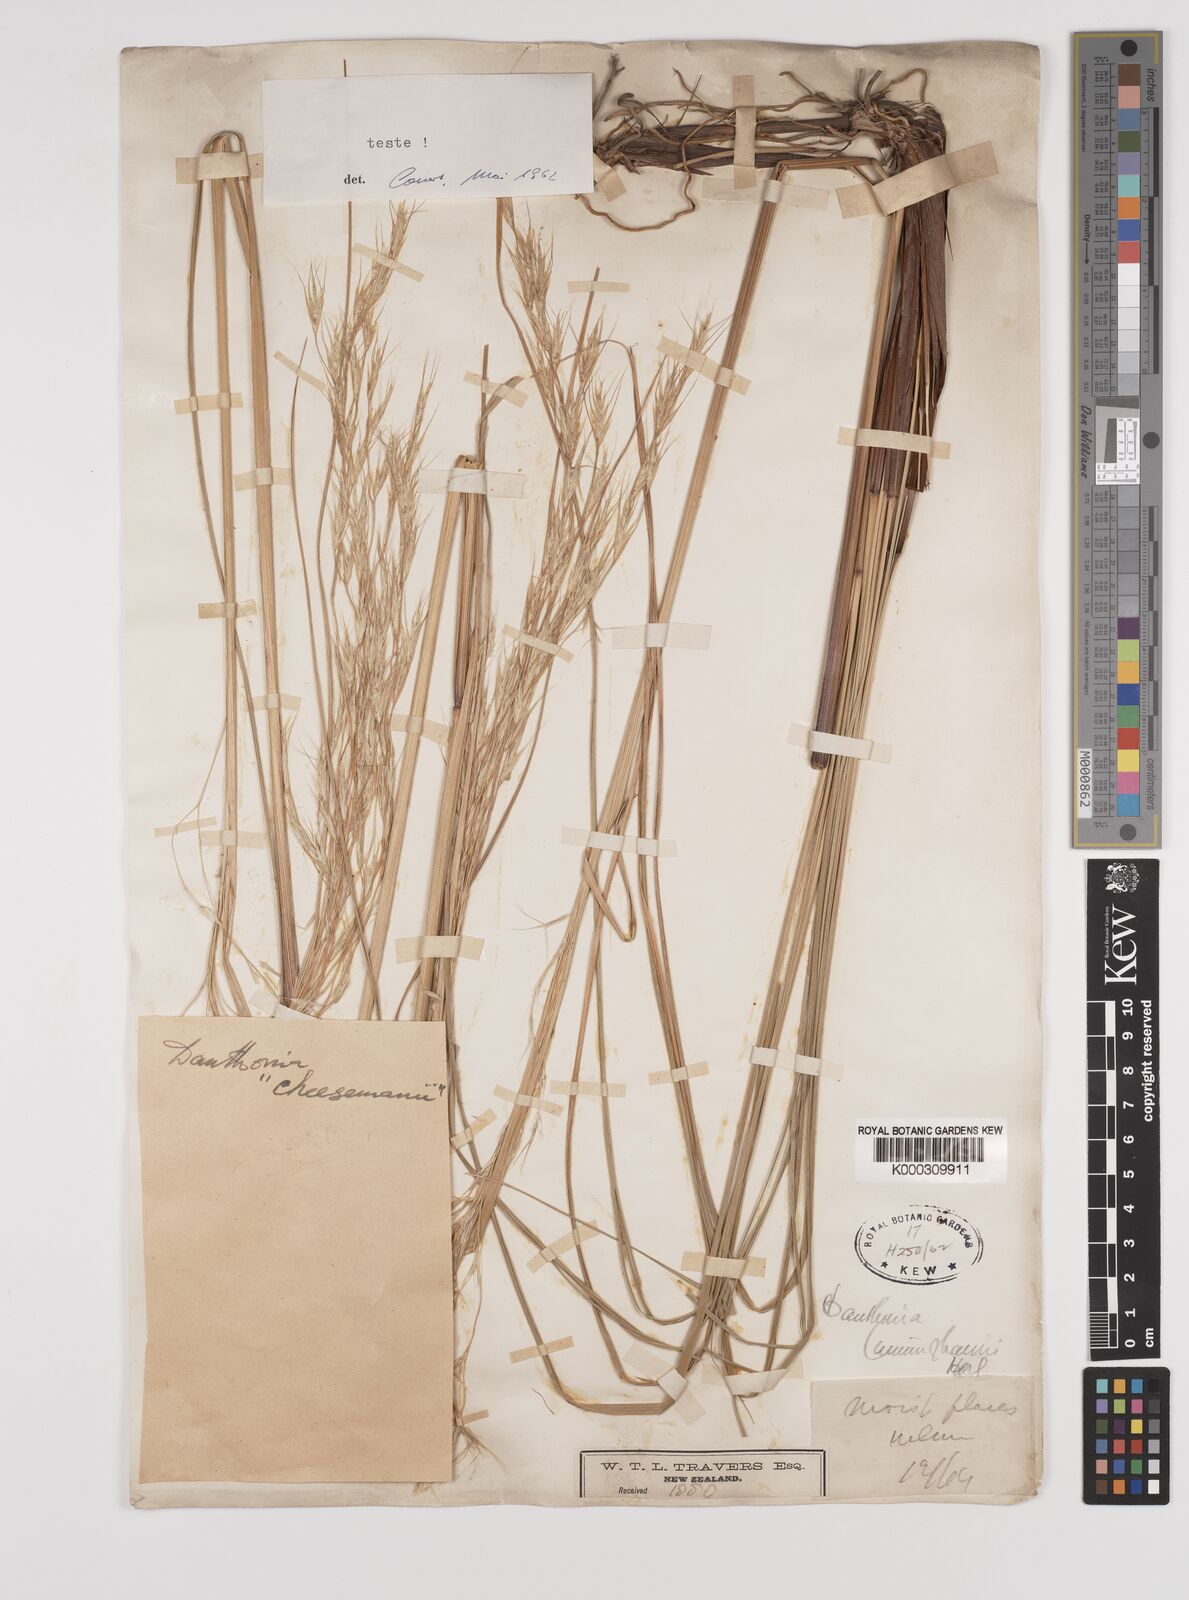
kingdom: Plantae
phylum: Tracheophyta
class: Liliopsida
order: Poales
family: Poaceae
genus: Chionochloa
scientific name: Chionochloa conspicua
